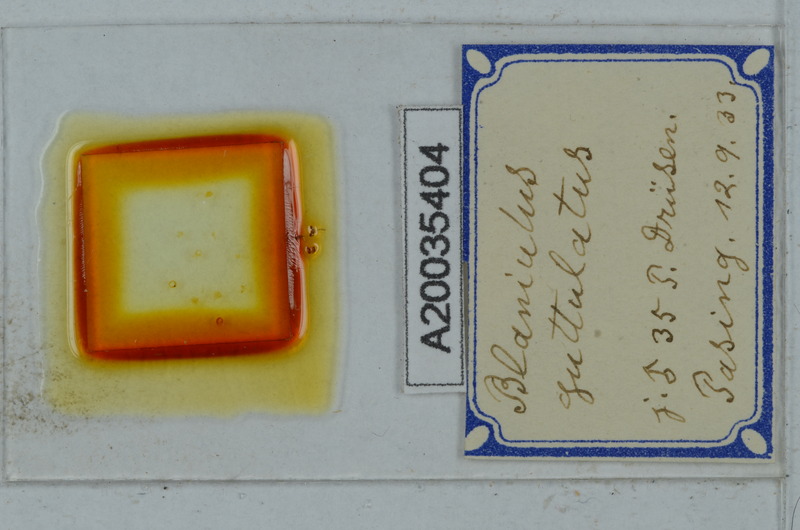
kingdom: Animalia
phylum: Arthropoda
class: Diplopoda
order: Julida
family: Blaniulidae
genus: Blaniulus
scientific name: Blaniulus guttulatus
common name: Spotted snake millipede
